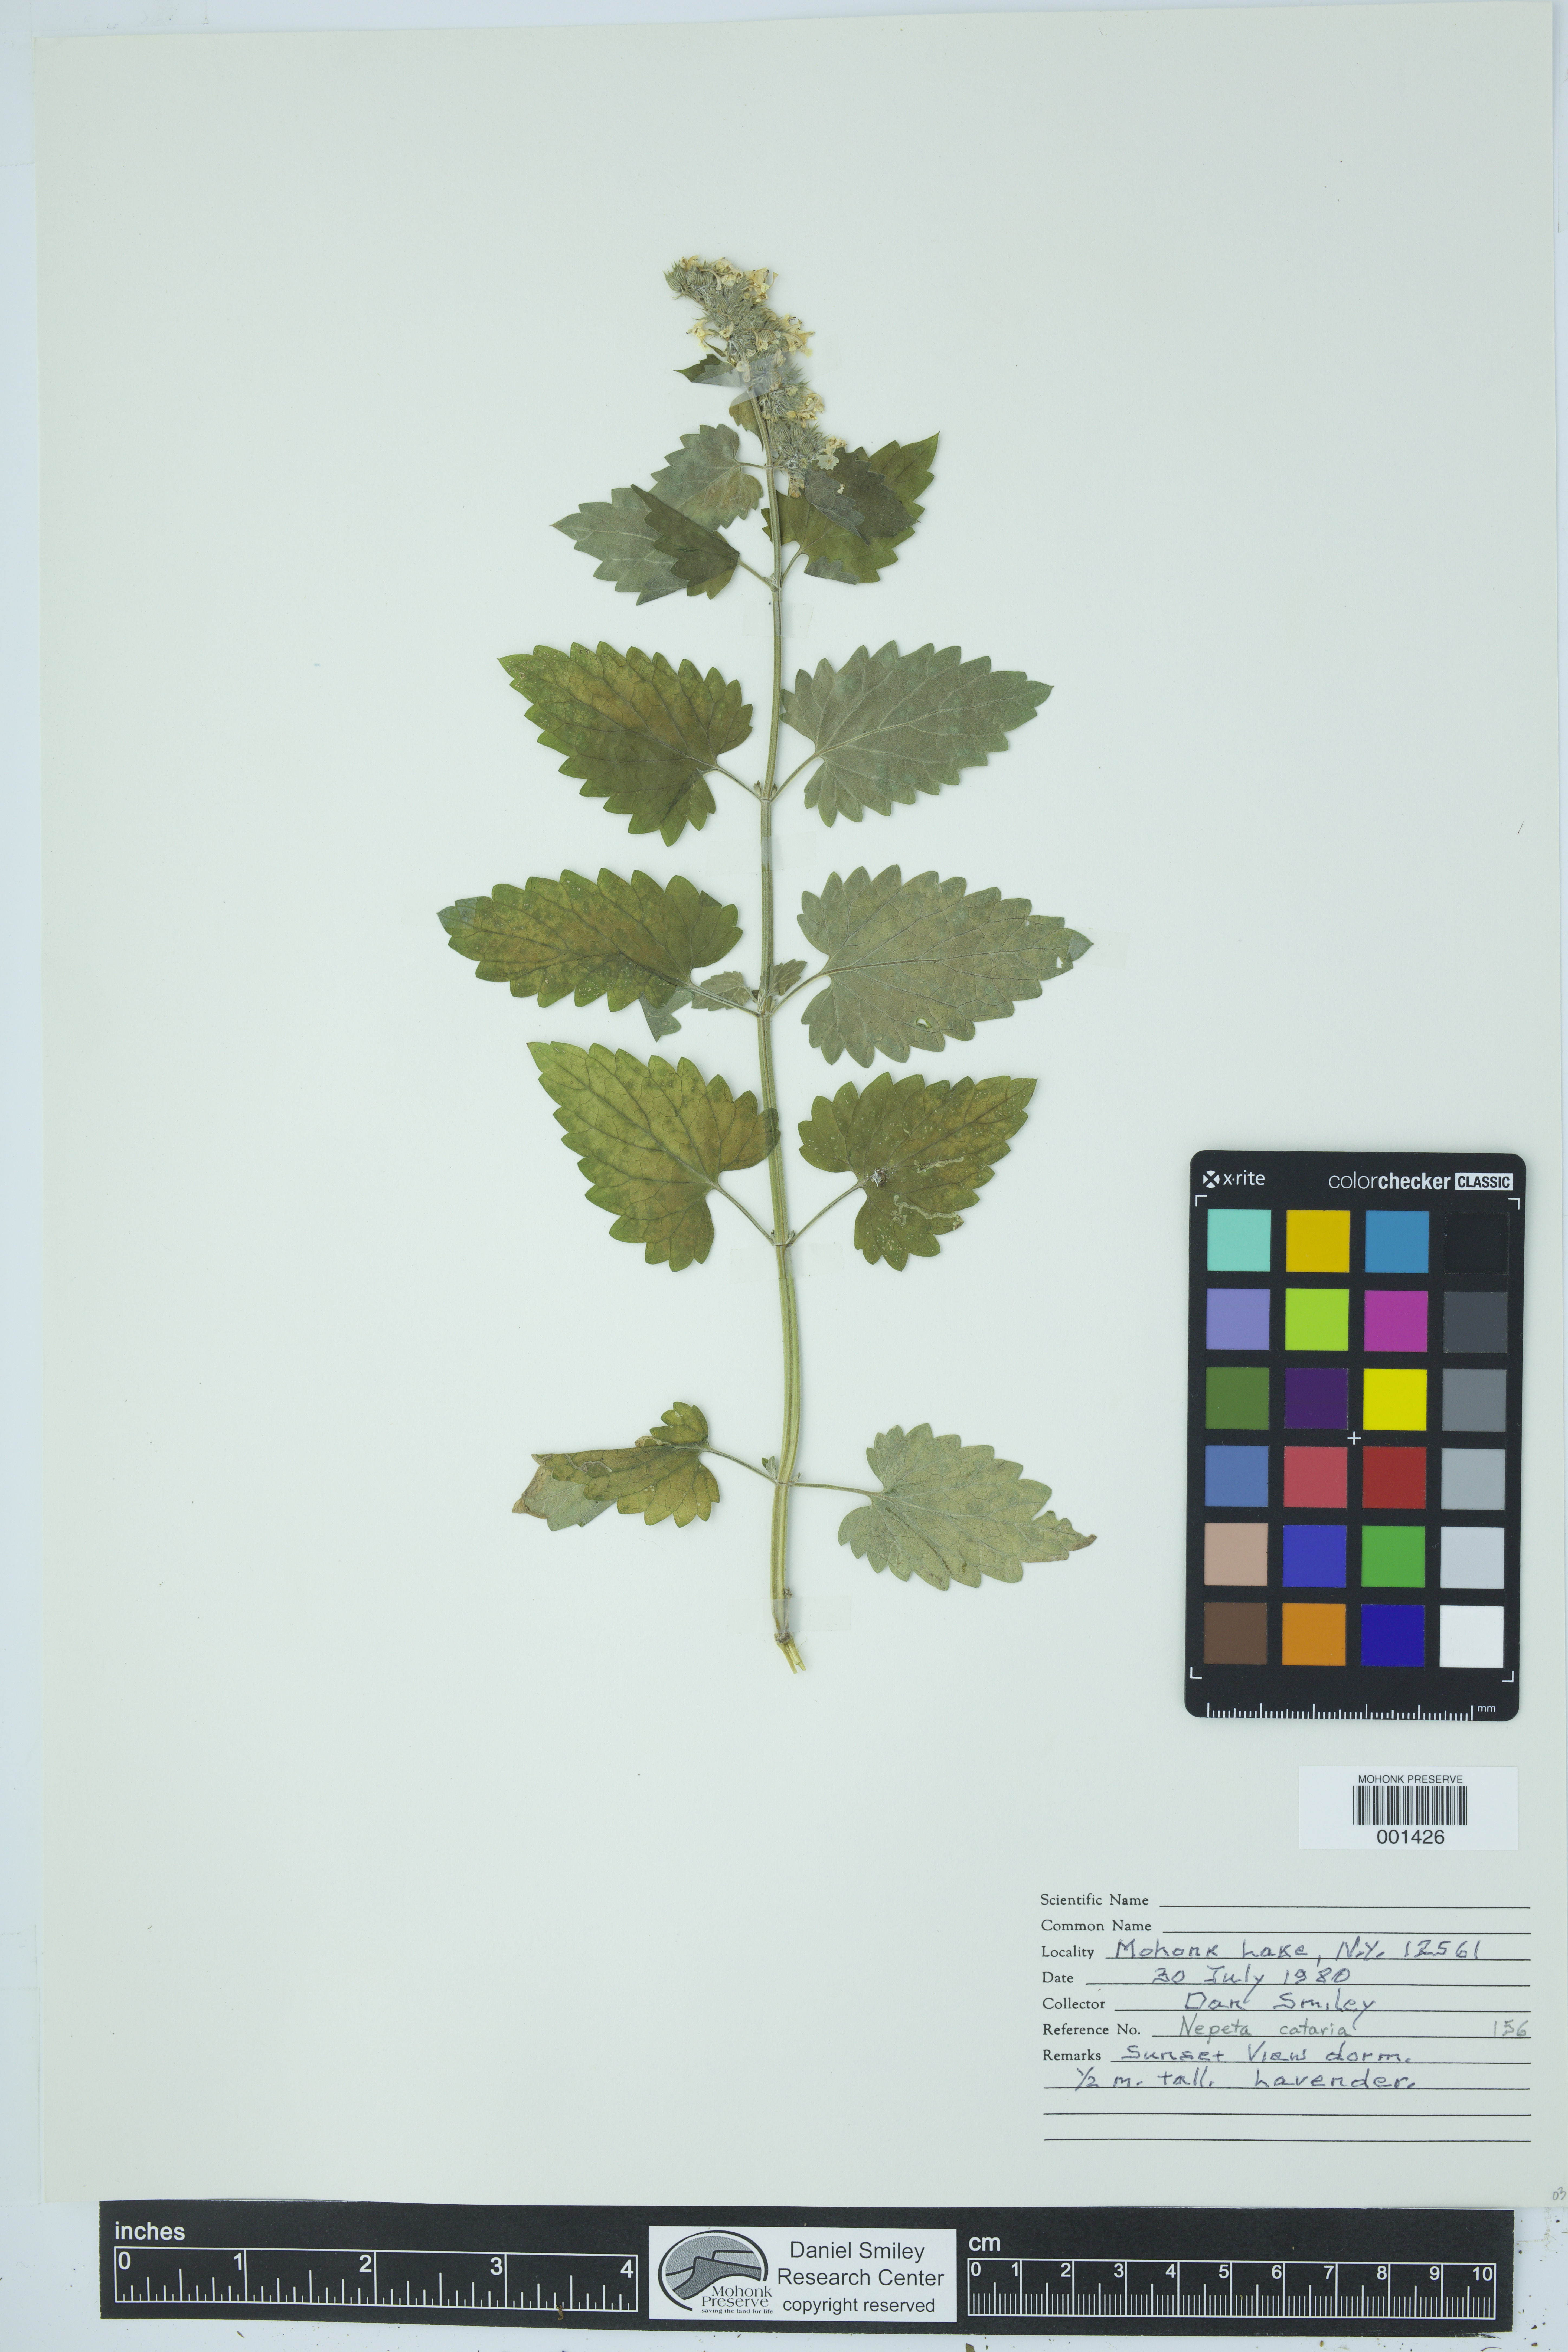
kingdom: Plantae
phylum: Tracheophyta
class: Magnoliopsida
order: Lamiales
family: Lamiaceae
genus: Nepeta
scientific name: Nepeta cataria
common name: Catnip
